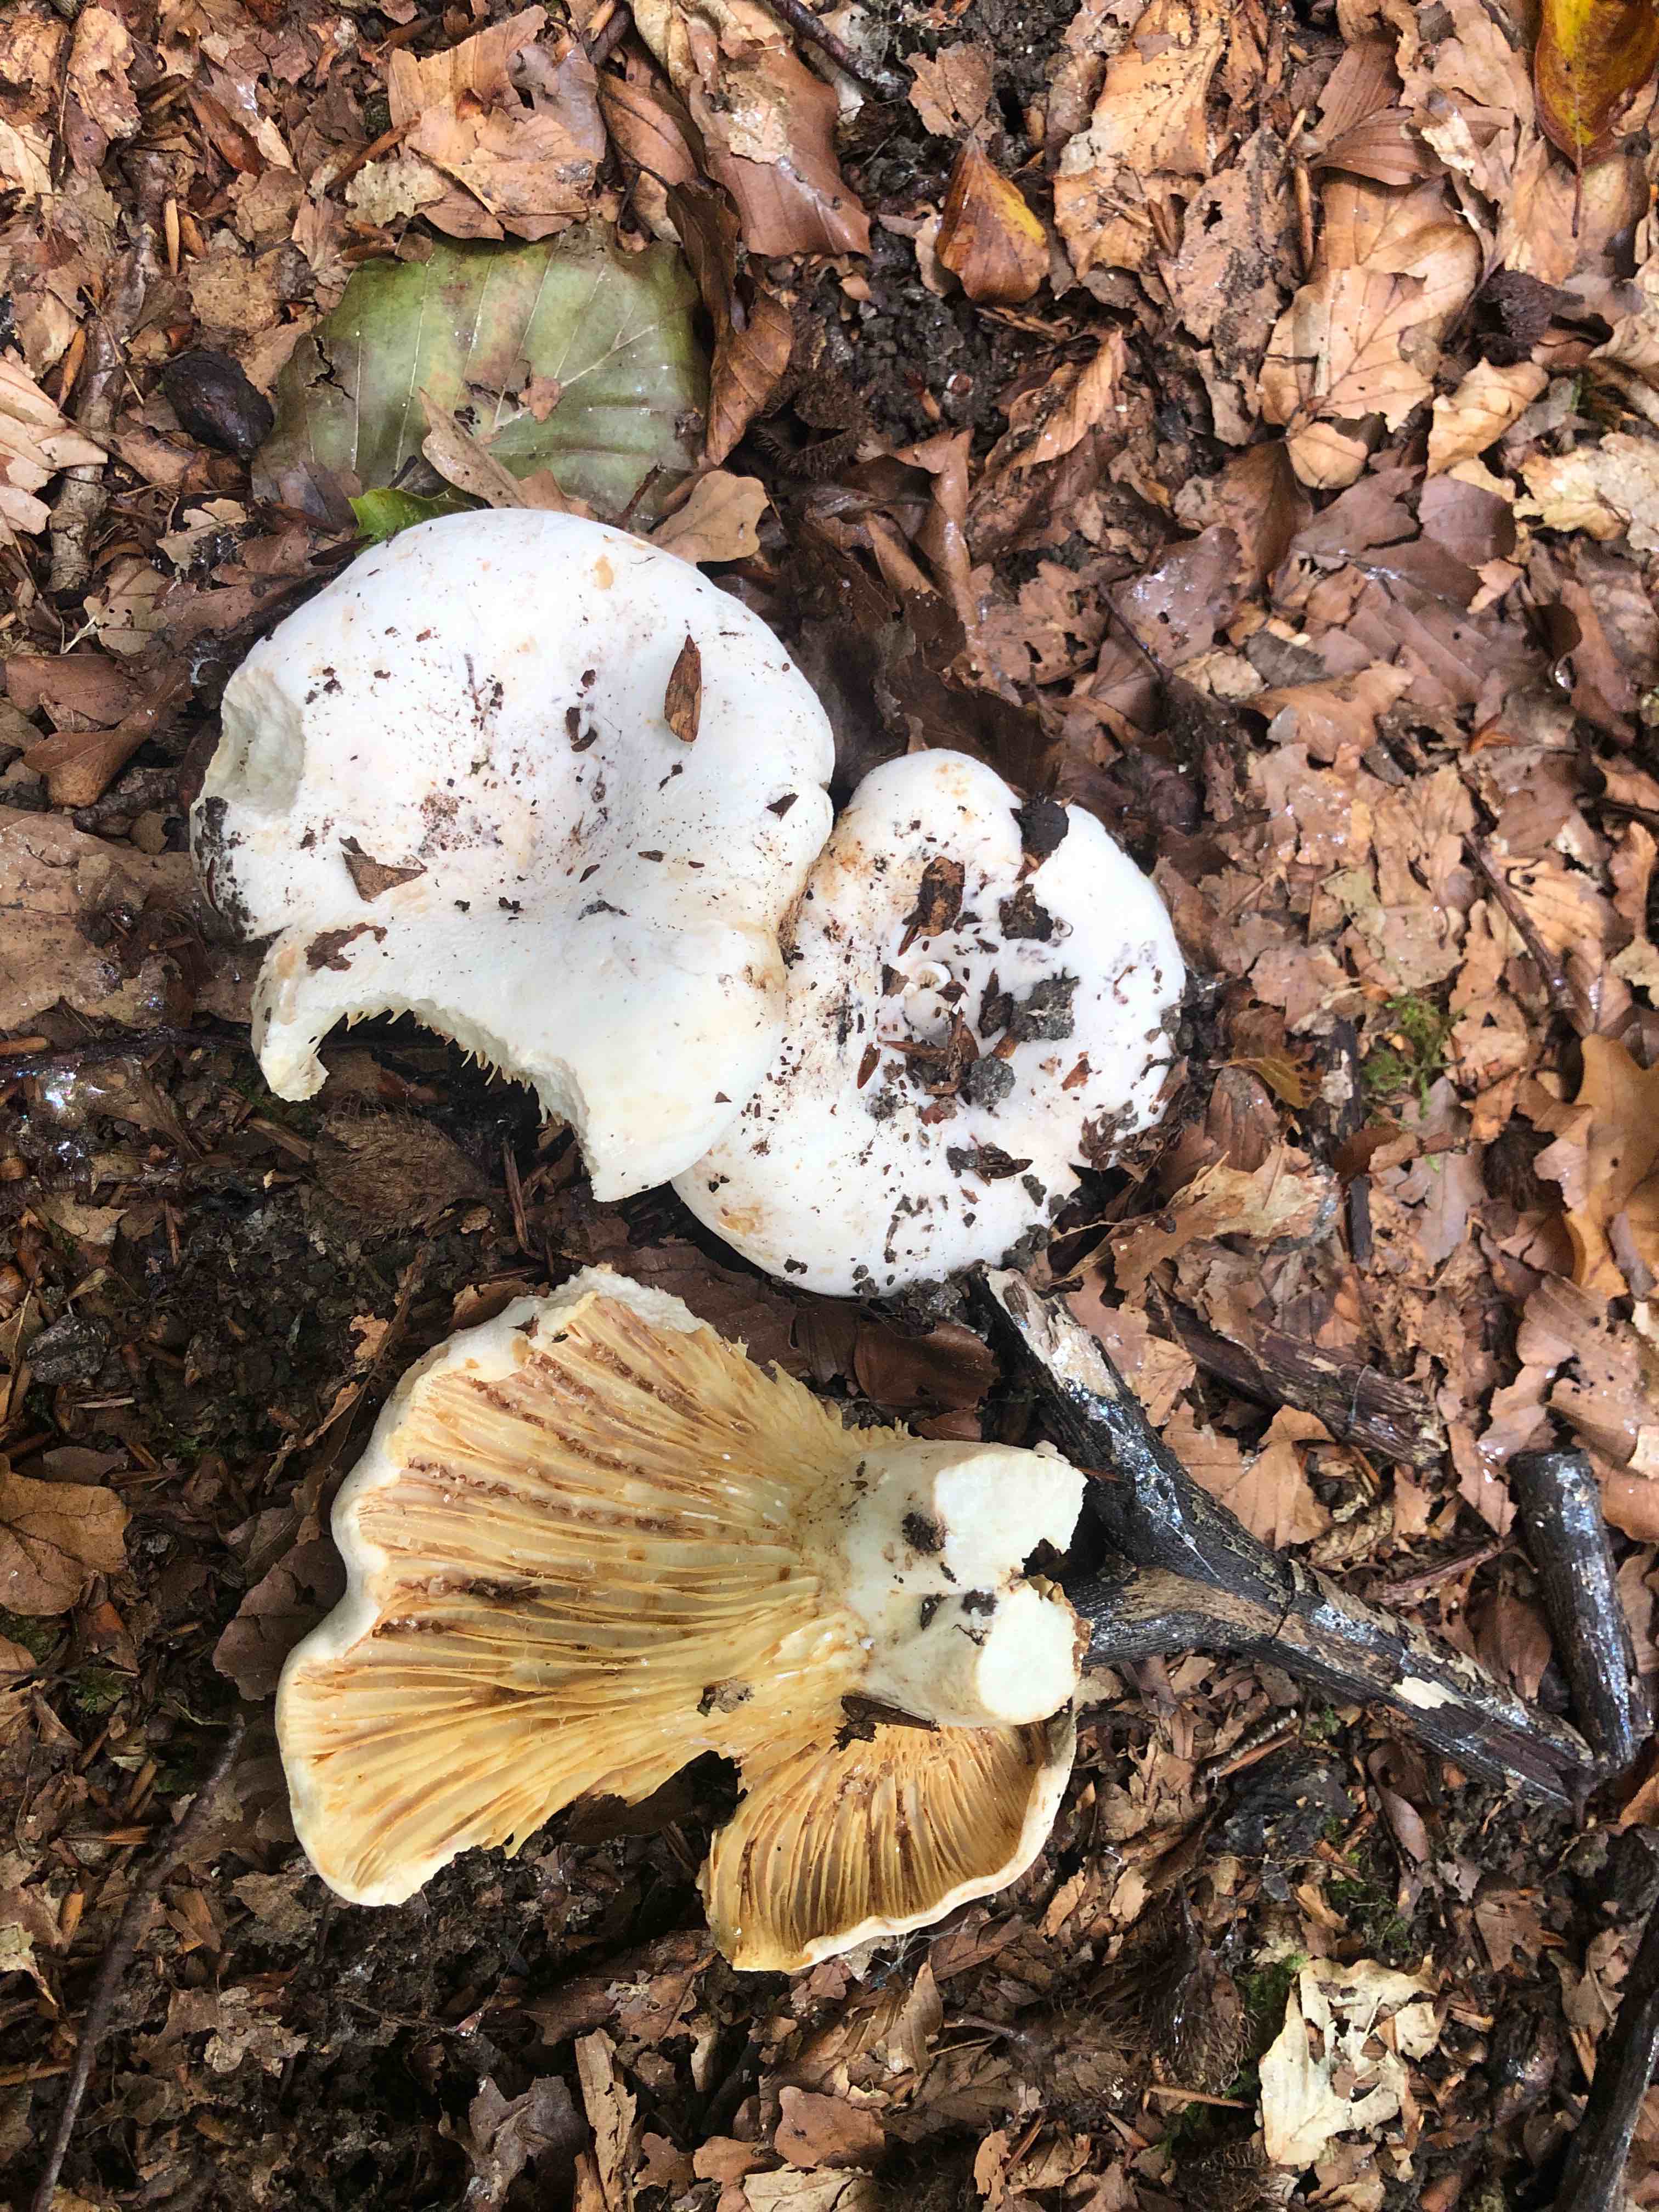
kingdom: Fungi
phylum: Basidiomycota
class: Agaricomycetes
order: Russulales
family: Russulaceae
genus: Lactifluus
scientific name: Lactifluus vellereus
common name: hvidfiltet mælkehat
